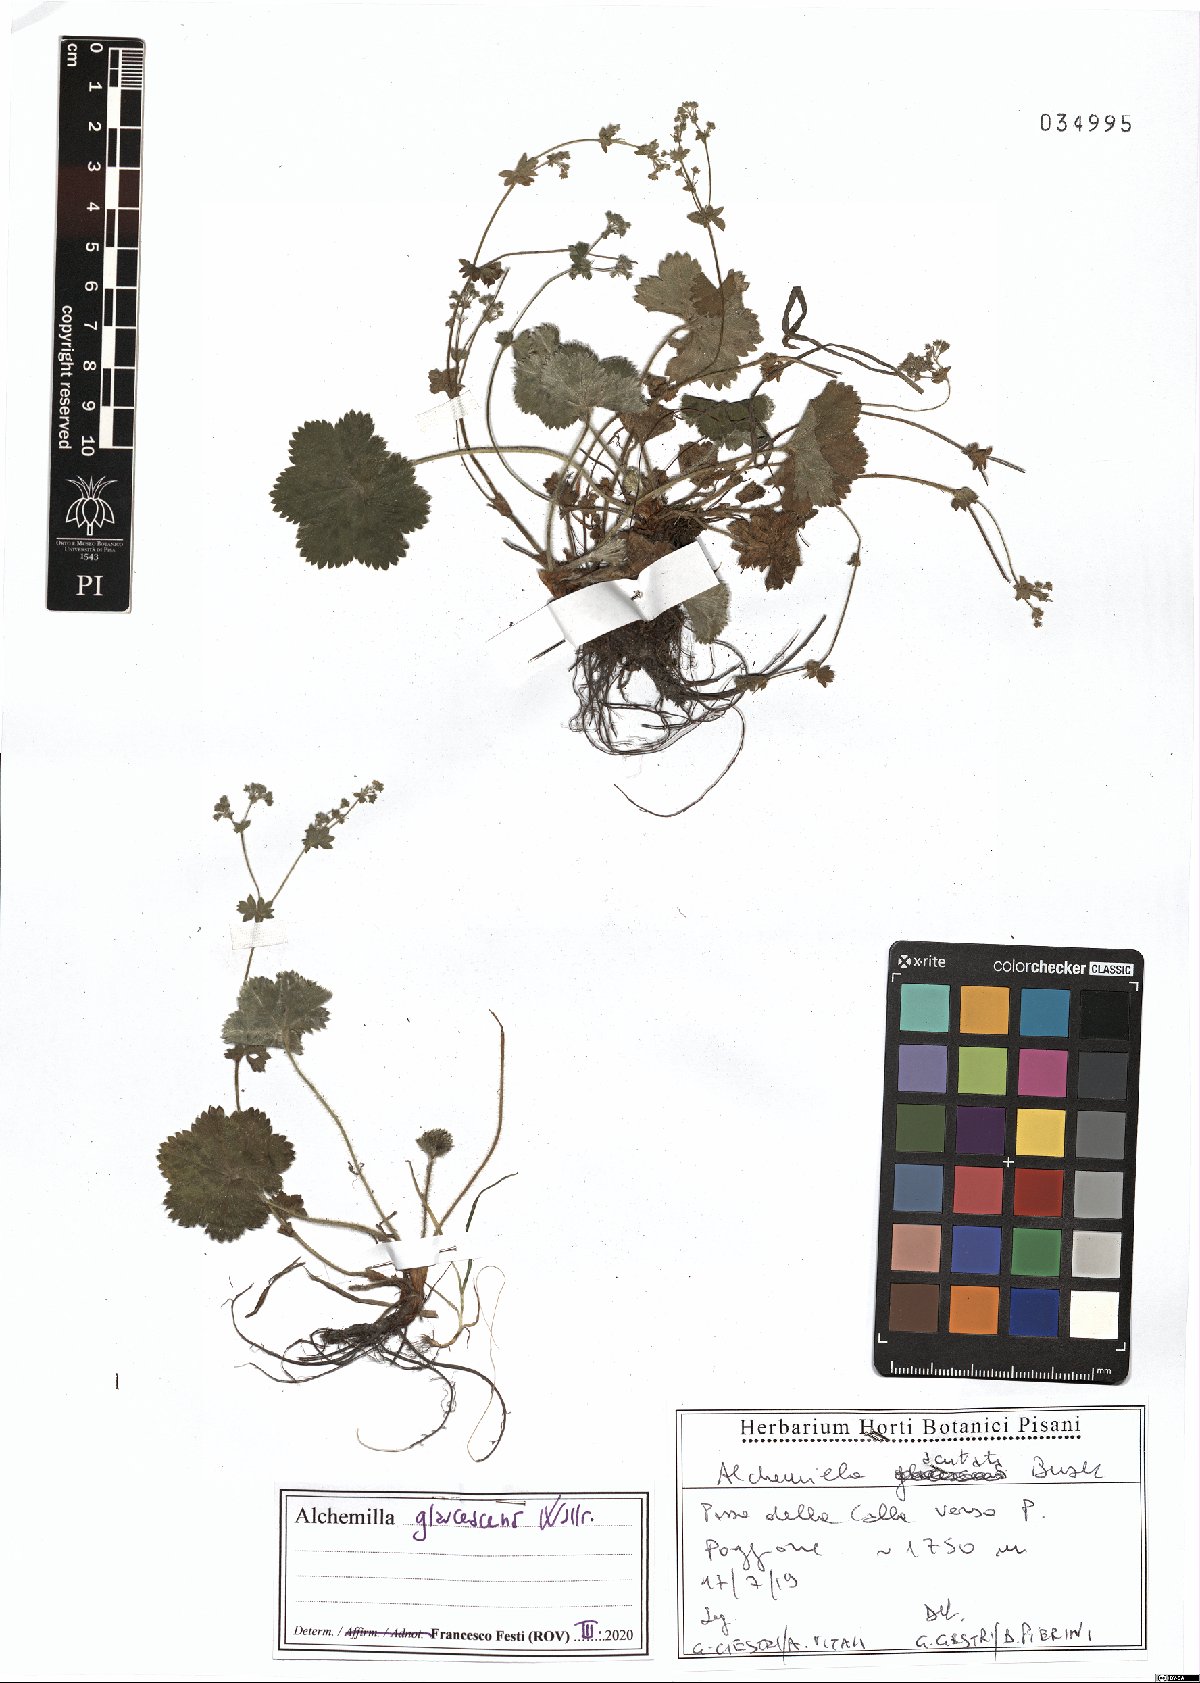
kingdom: Plantae
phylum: Tracheophyta
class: Magnoliopsida
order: Rosales
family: Rosaceae
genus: Alchemilla
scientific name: Alchemilla glaucescens
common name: Silky lady's mantle
